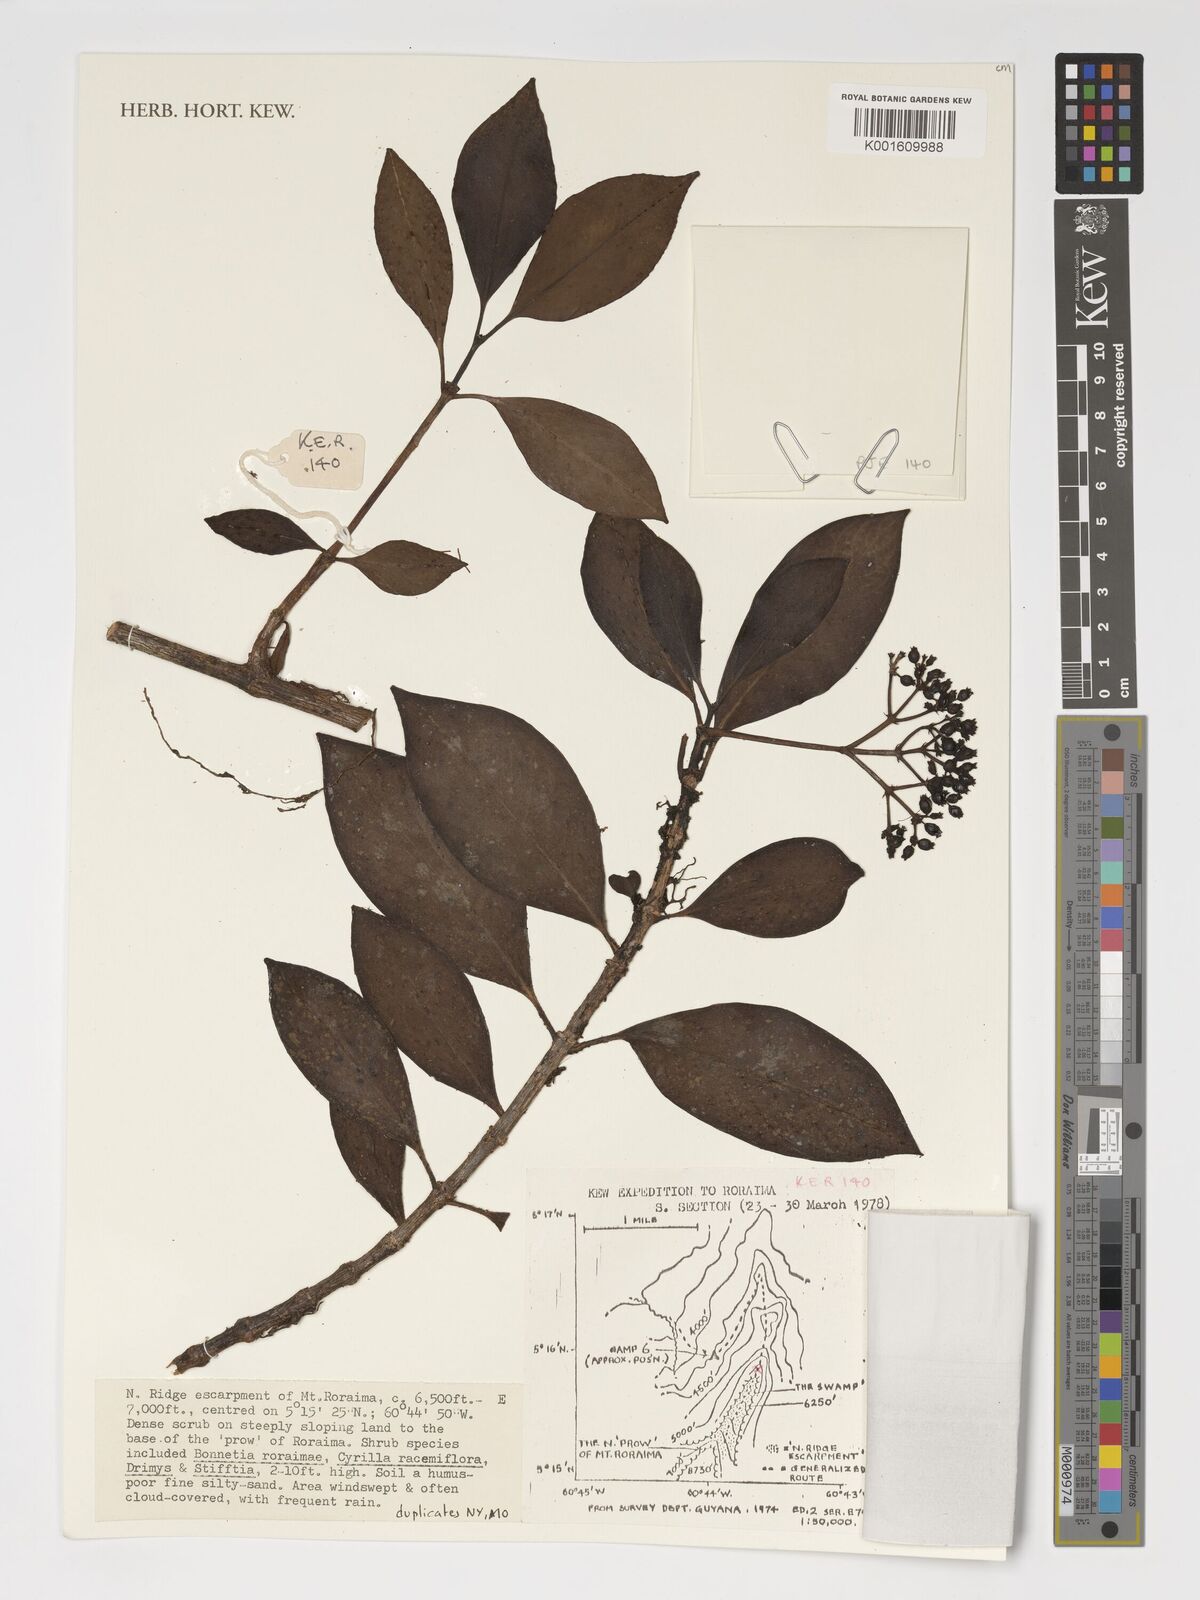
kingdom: Plantae
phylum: Tracheophyta
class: Magnoliopsida
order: Gentianales
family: Rubiaceae
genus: Notopleura
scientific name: Notopleura crassa
